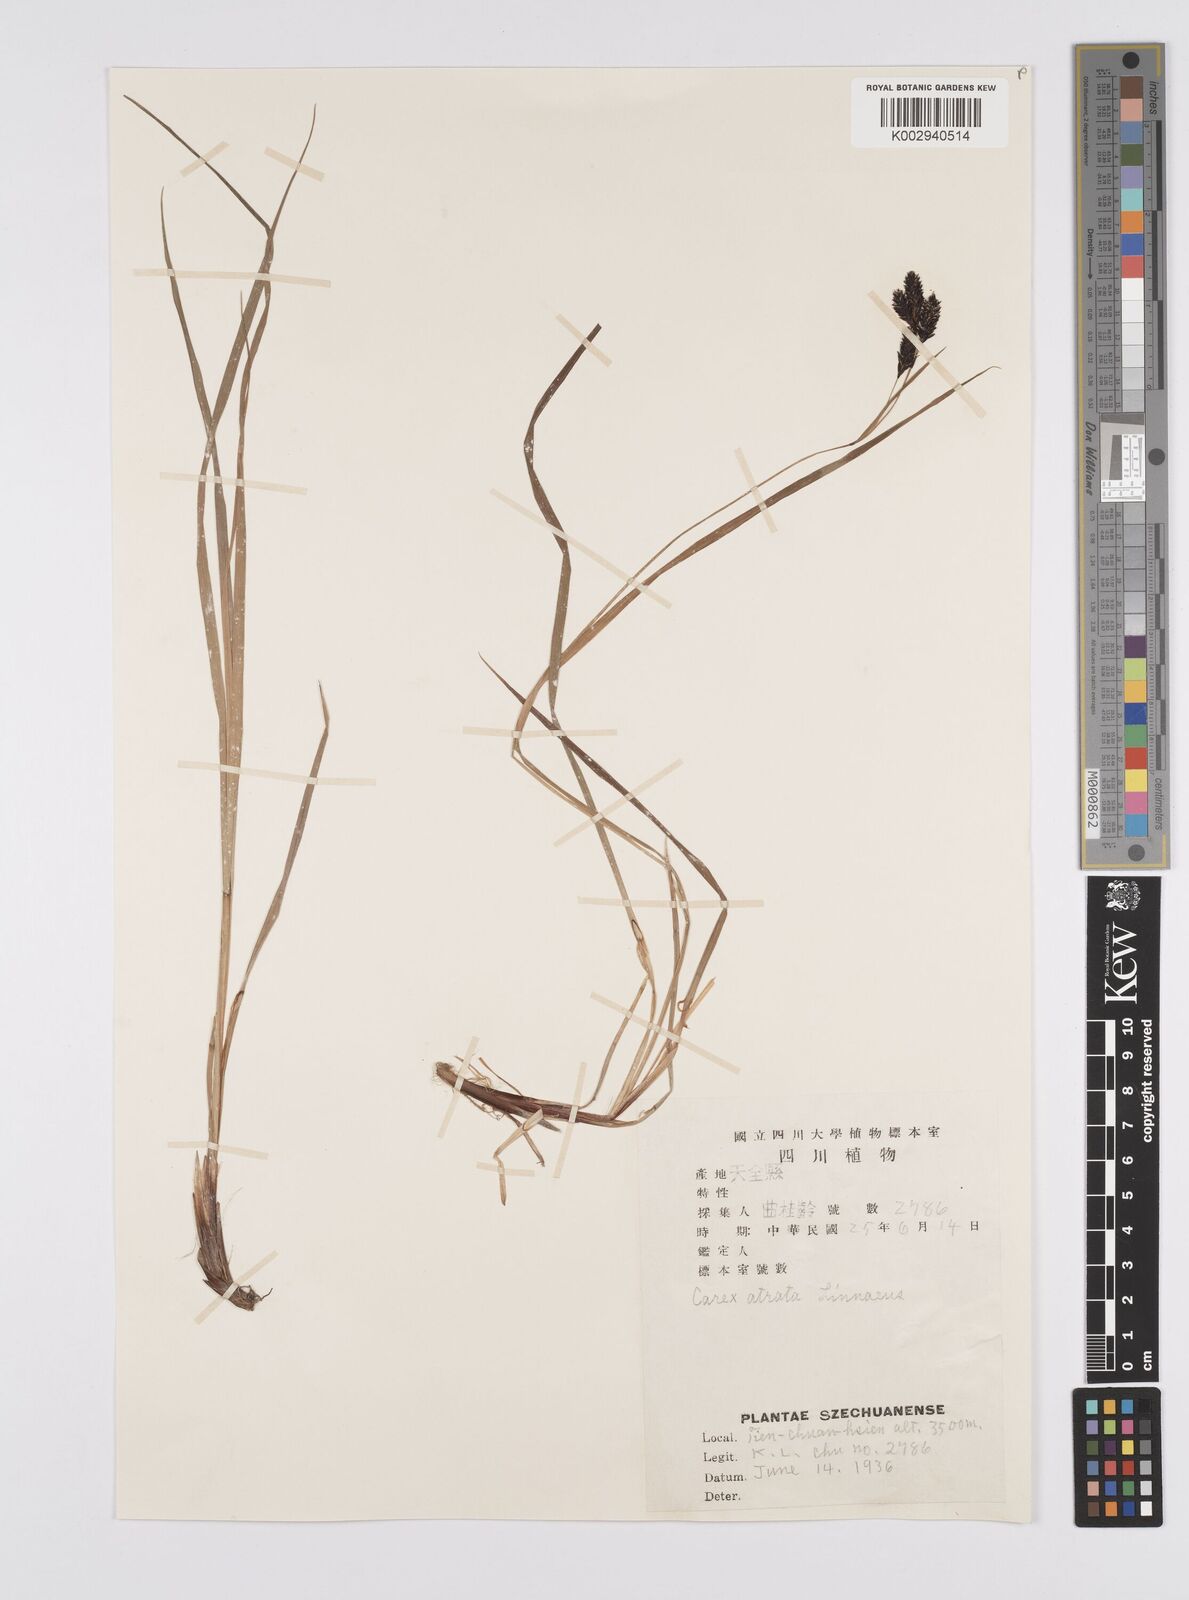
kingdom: Plantae
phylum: Tracheophyta
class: Liliopsida
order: Poales
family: Cyperaceae
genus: Carex
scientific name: Carex atrata
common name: Black alpine sedge
